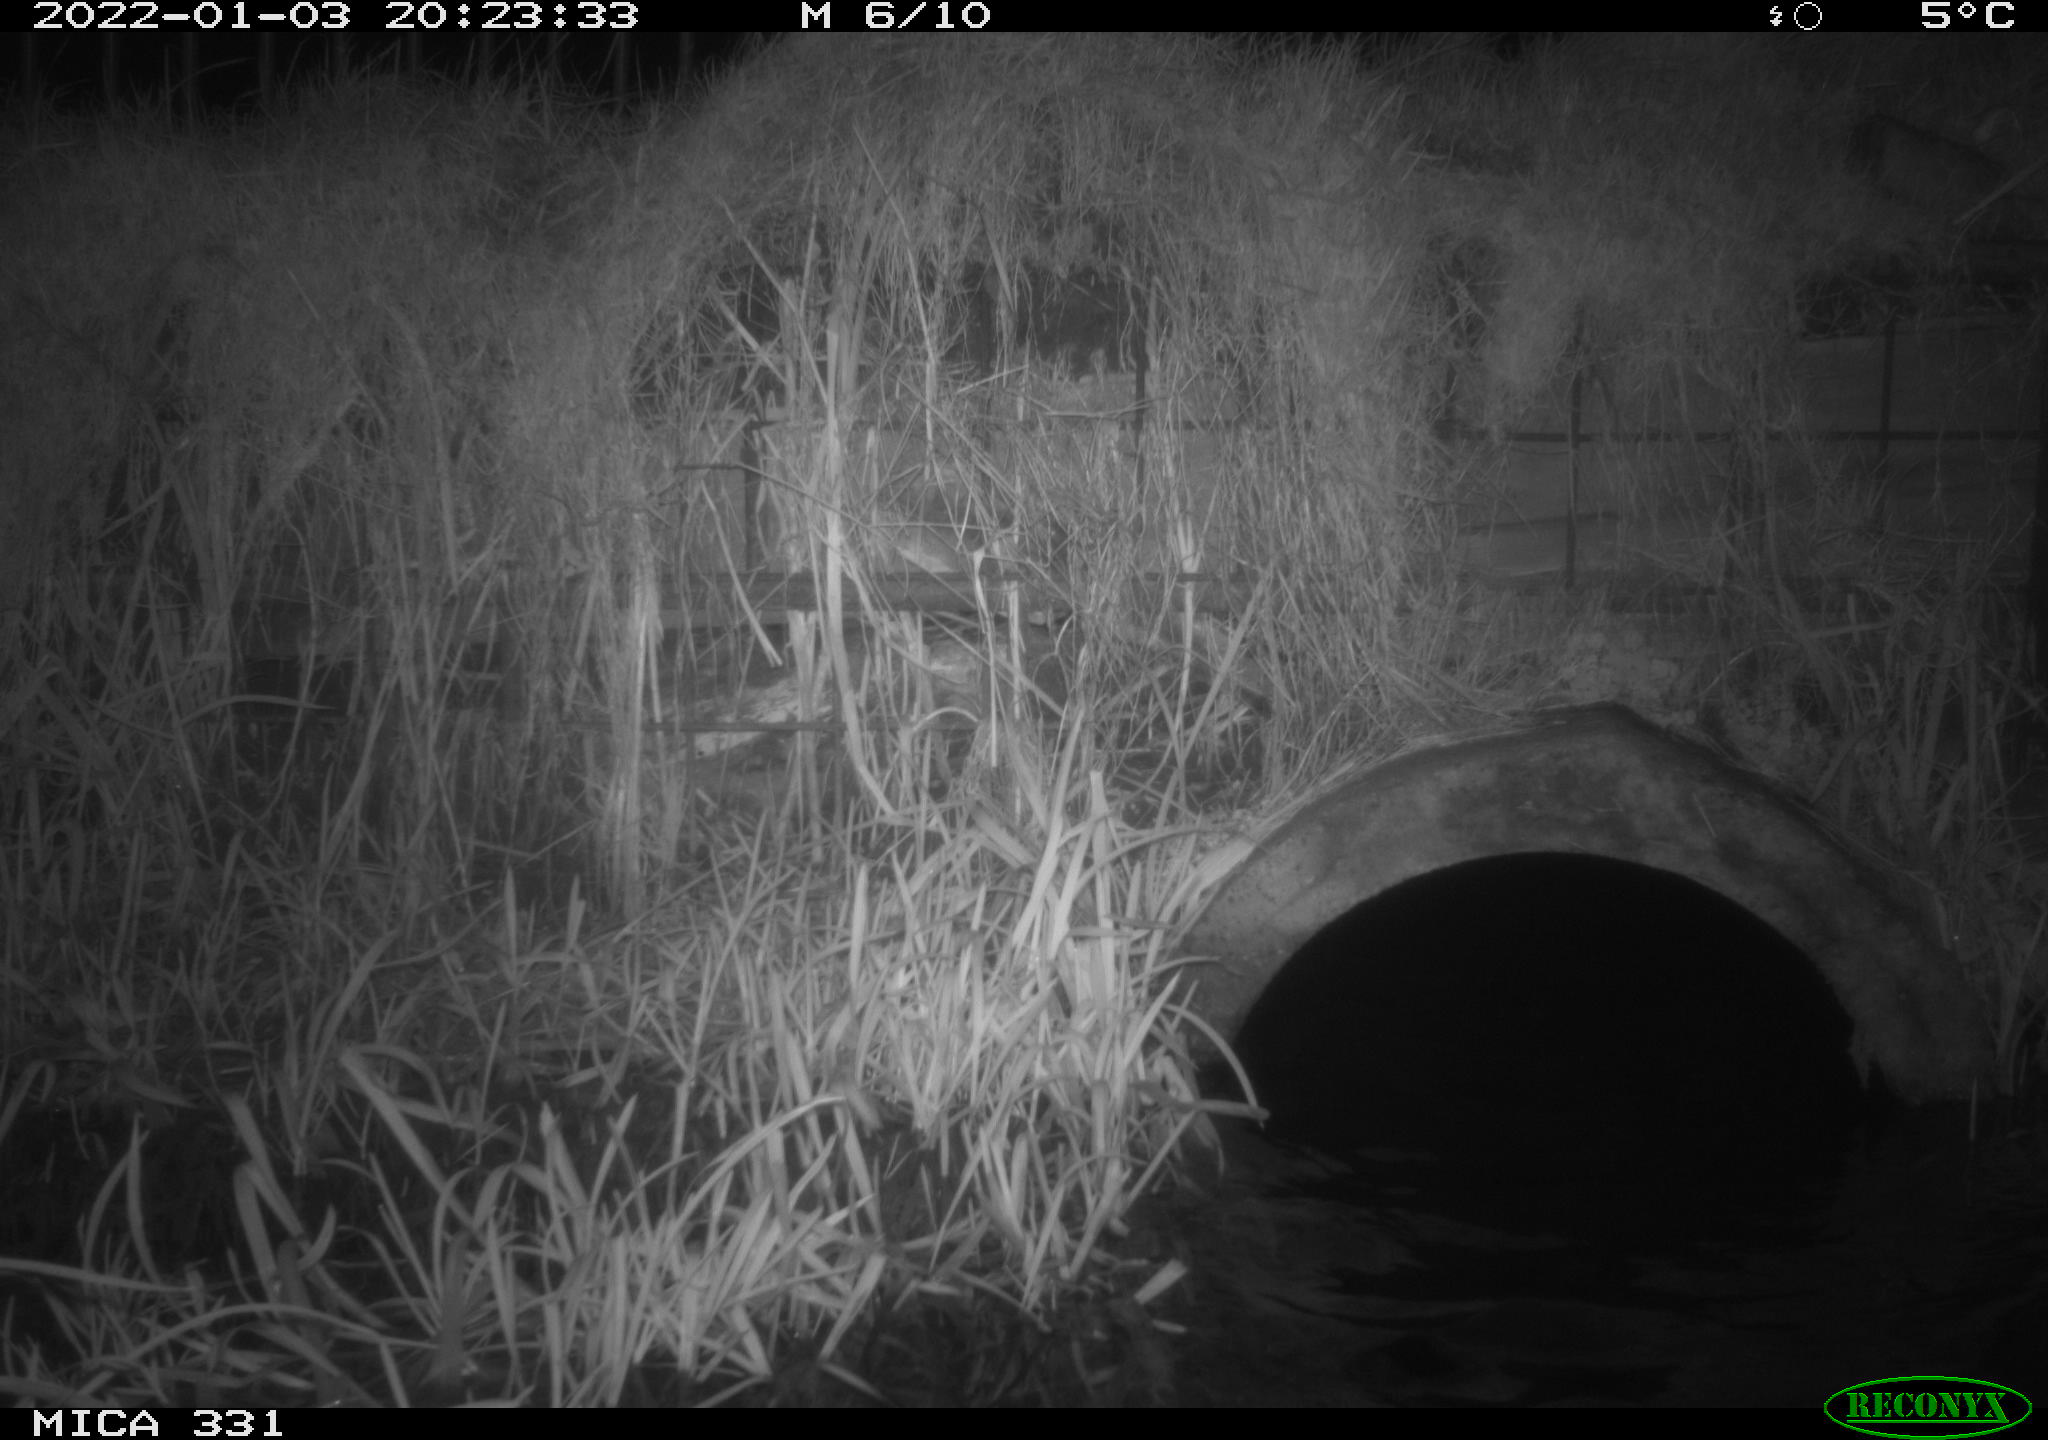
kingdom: Animalia
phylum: Chordata
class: Mammalia
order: Rodentia
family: Muridae
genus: Rattus
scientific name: Rattus norvegicus
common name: Brown rat
